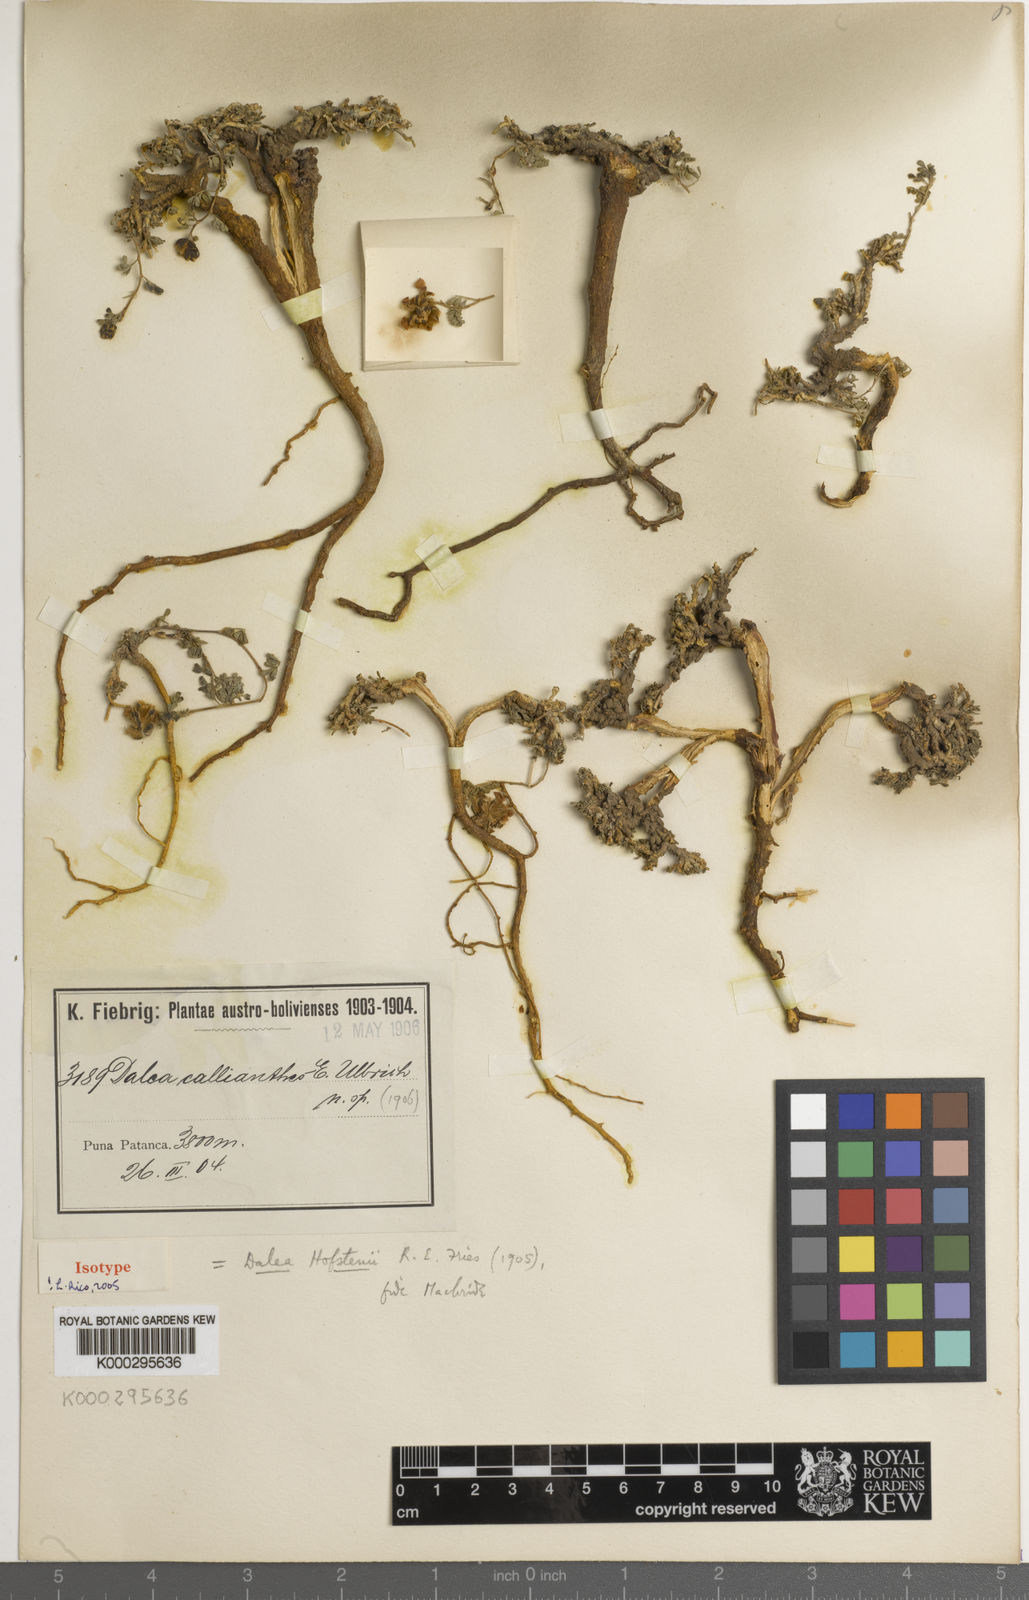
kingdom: Plantae
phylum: Tracheophyta
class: Magnoliopsida
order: Fabales
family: Fabaceae
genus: Dalea
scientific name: Dalea boliviana
